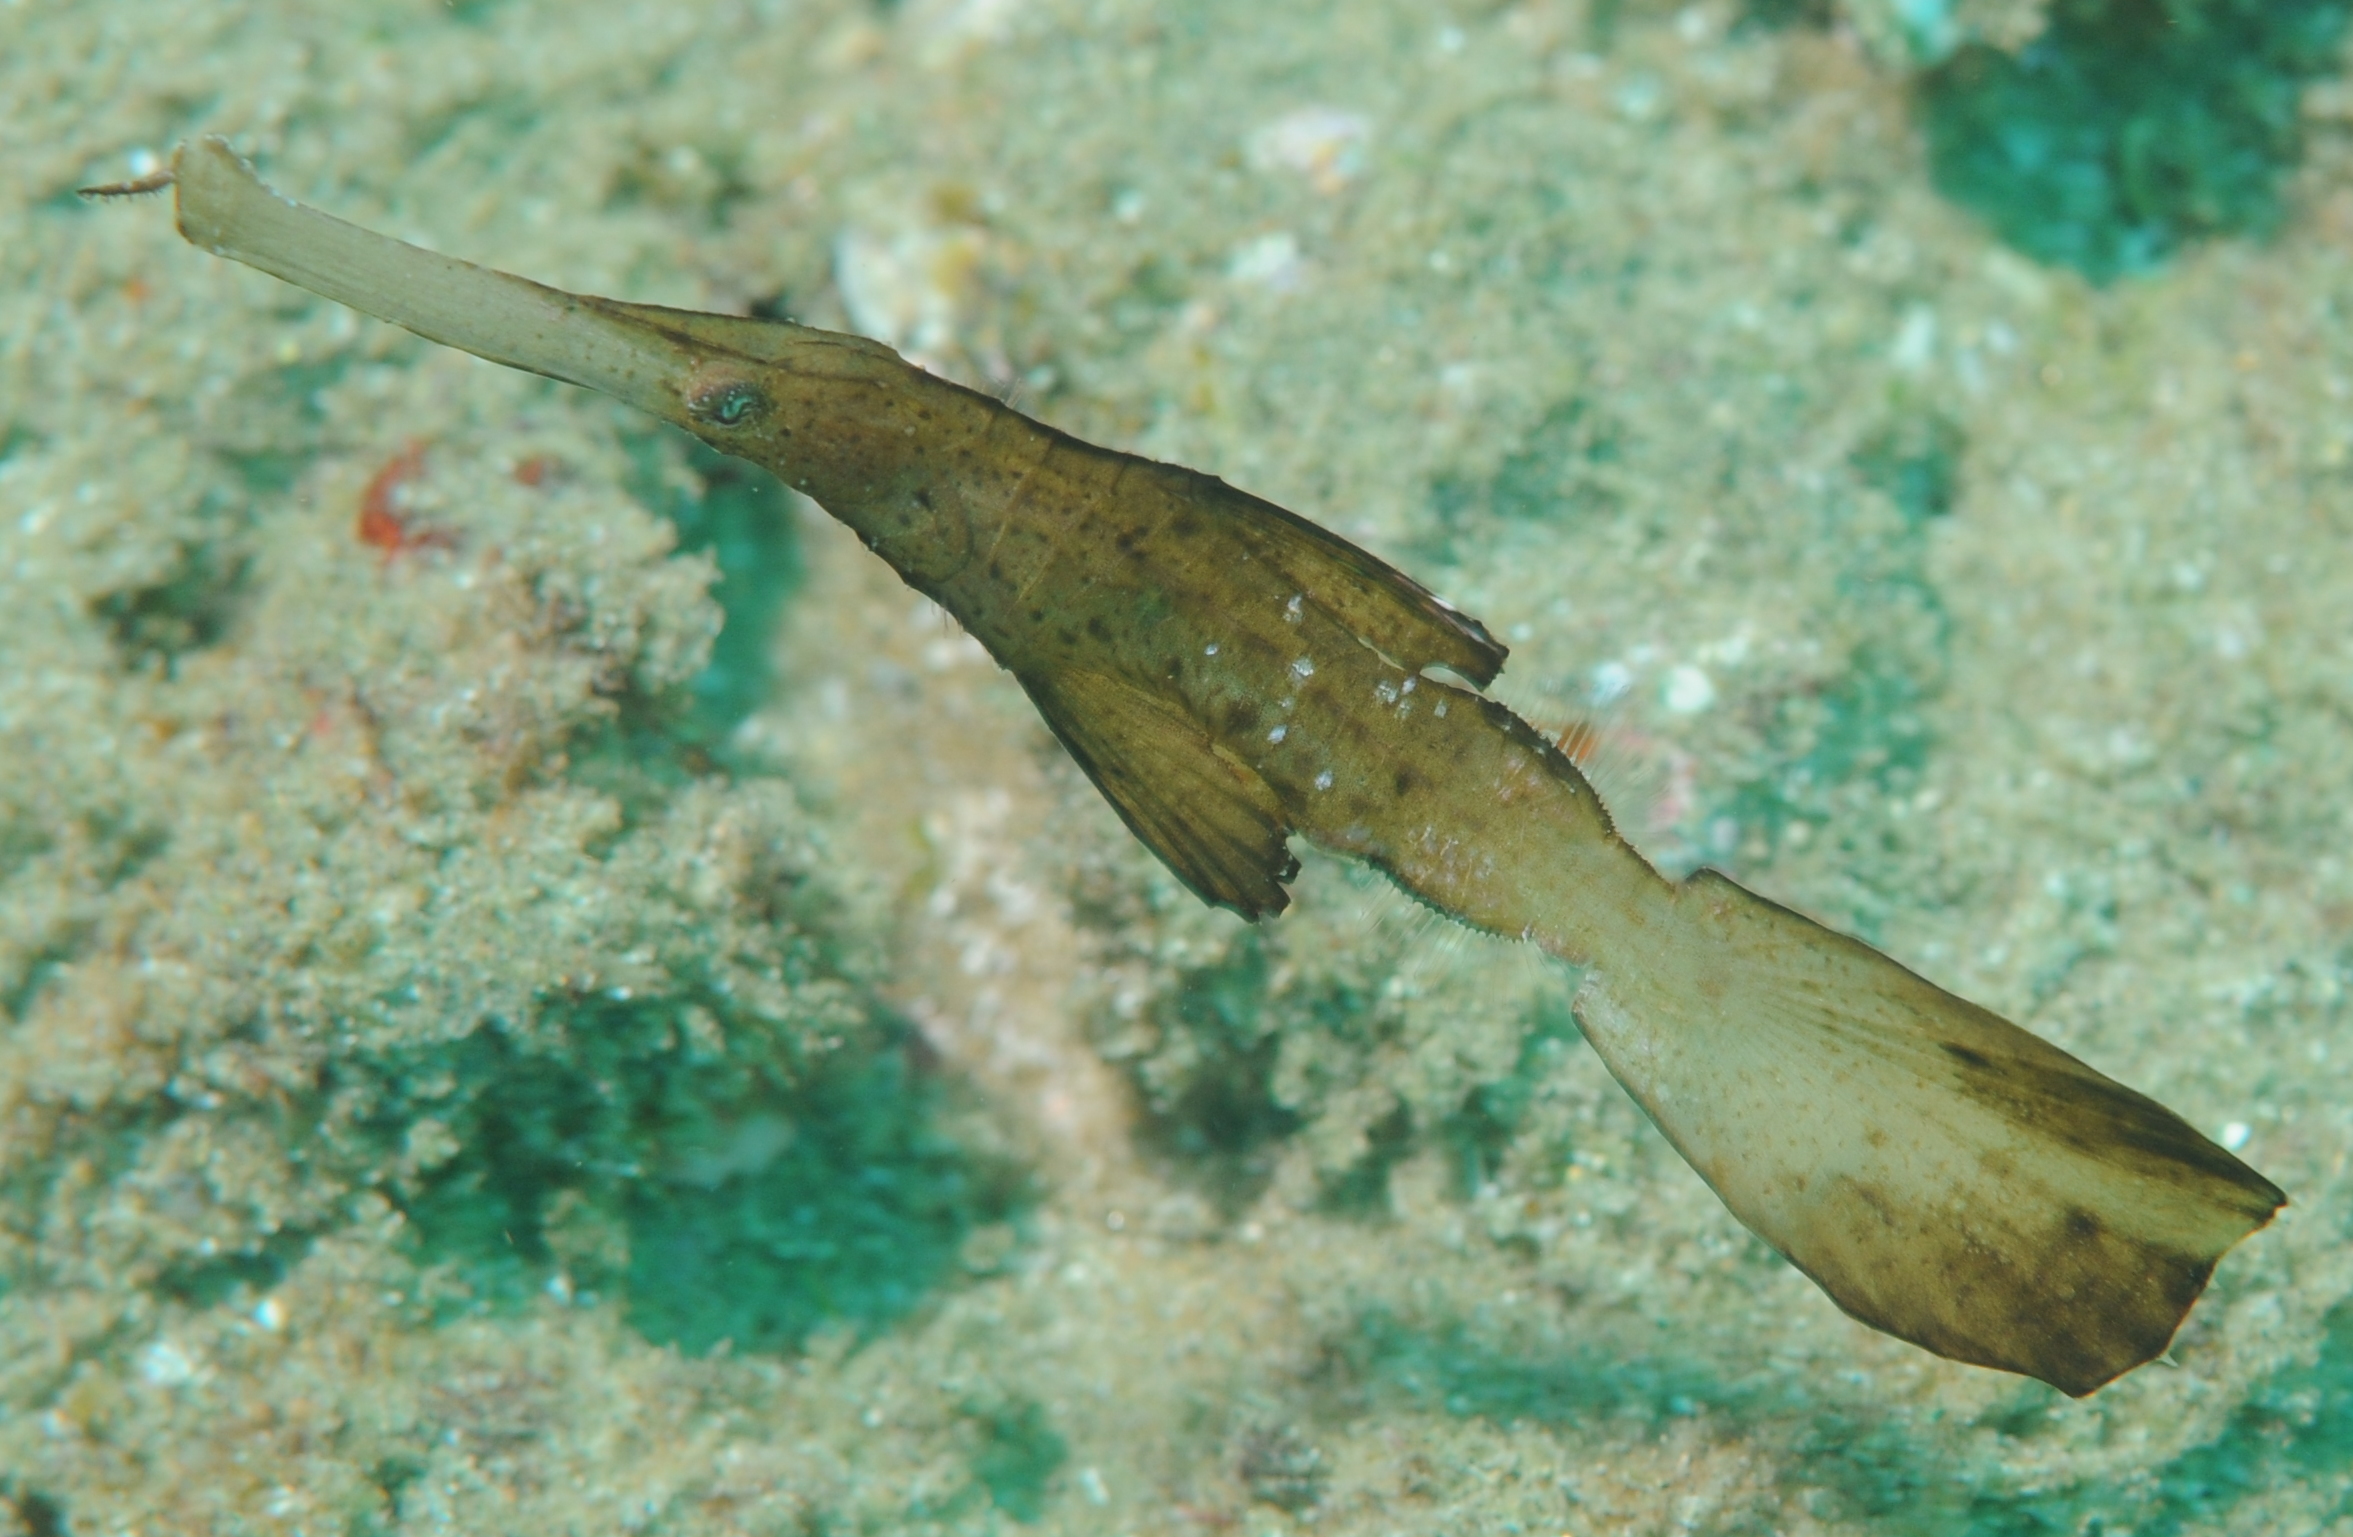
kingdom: Animalia
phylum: Chordata
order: Syngnathiformes
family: Solenostomidae
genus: Solenostomus
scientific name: Solenostomus cyanopterus
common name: Blue-finned ghost pipefish
